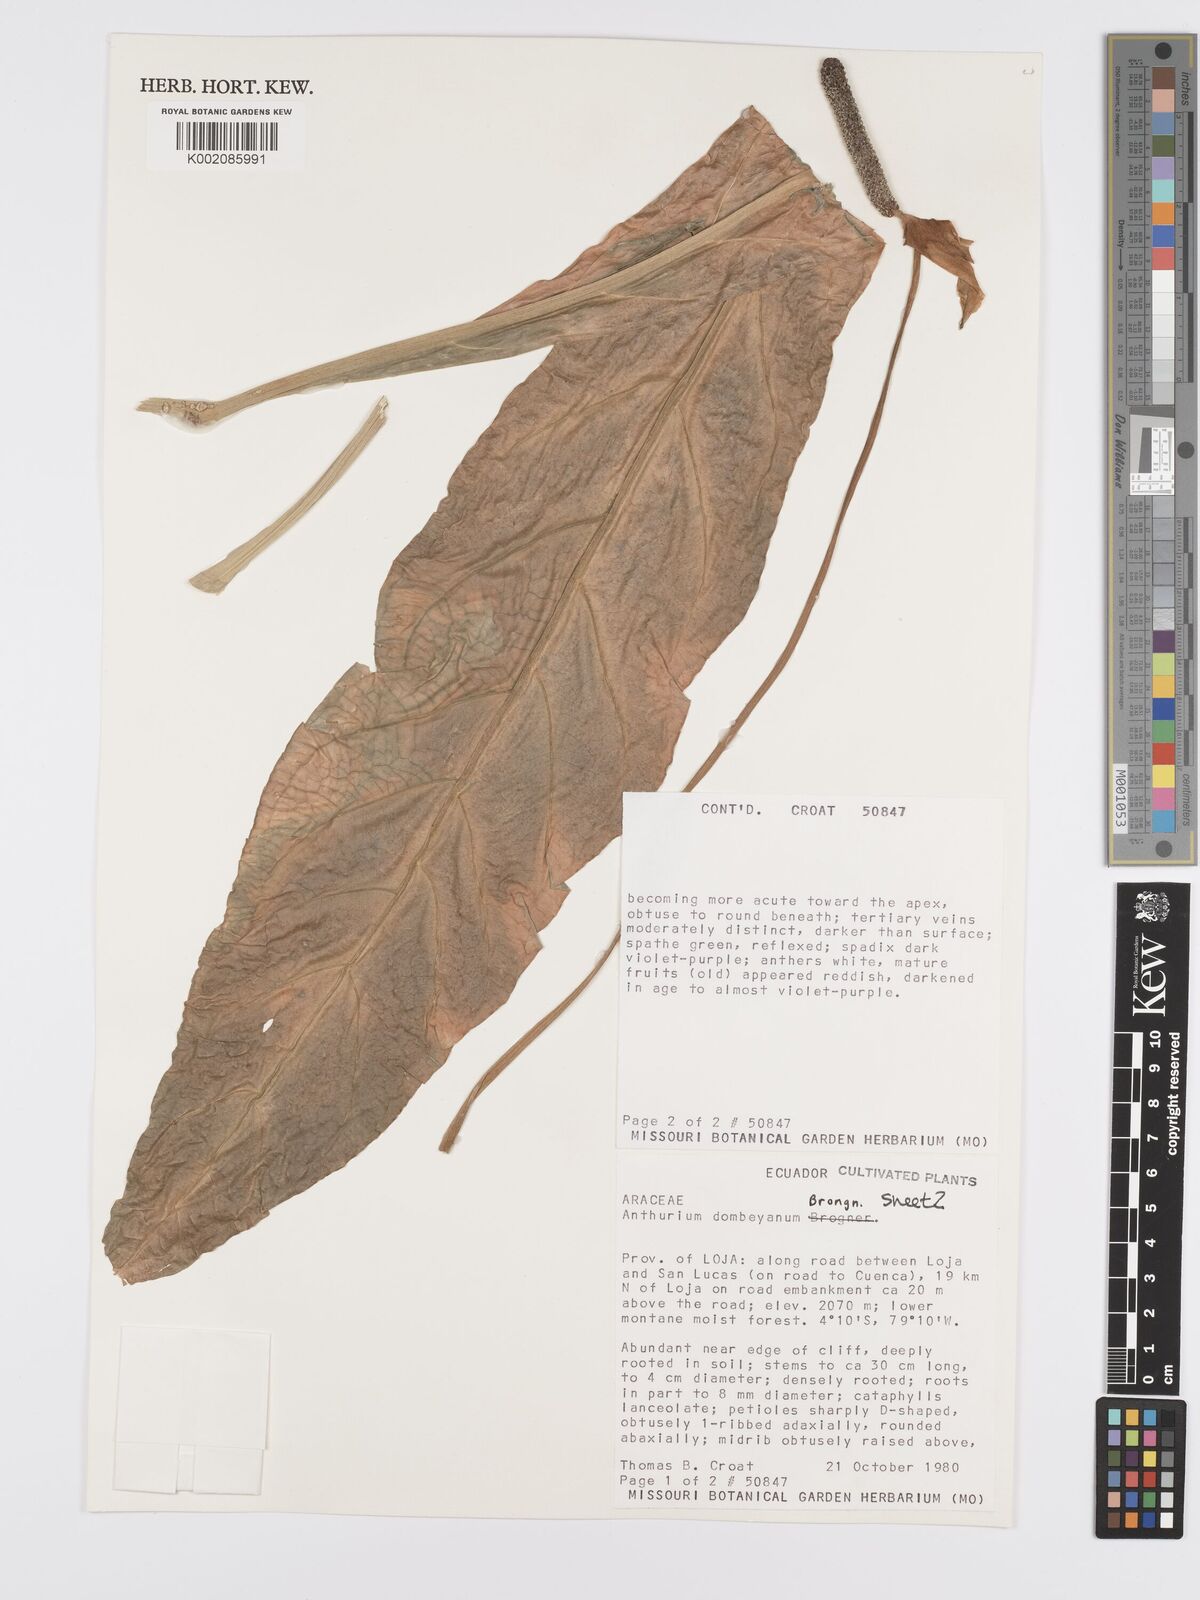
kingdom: Plantae
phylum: Tracheophyta
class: Liliopsida
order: Alismatales
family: Araceae
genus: Anthurium
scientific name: Anthurium dombeyanum
